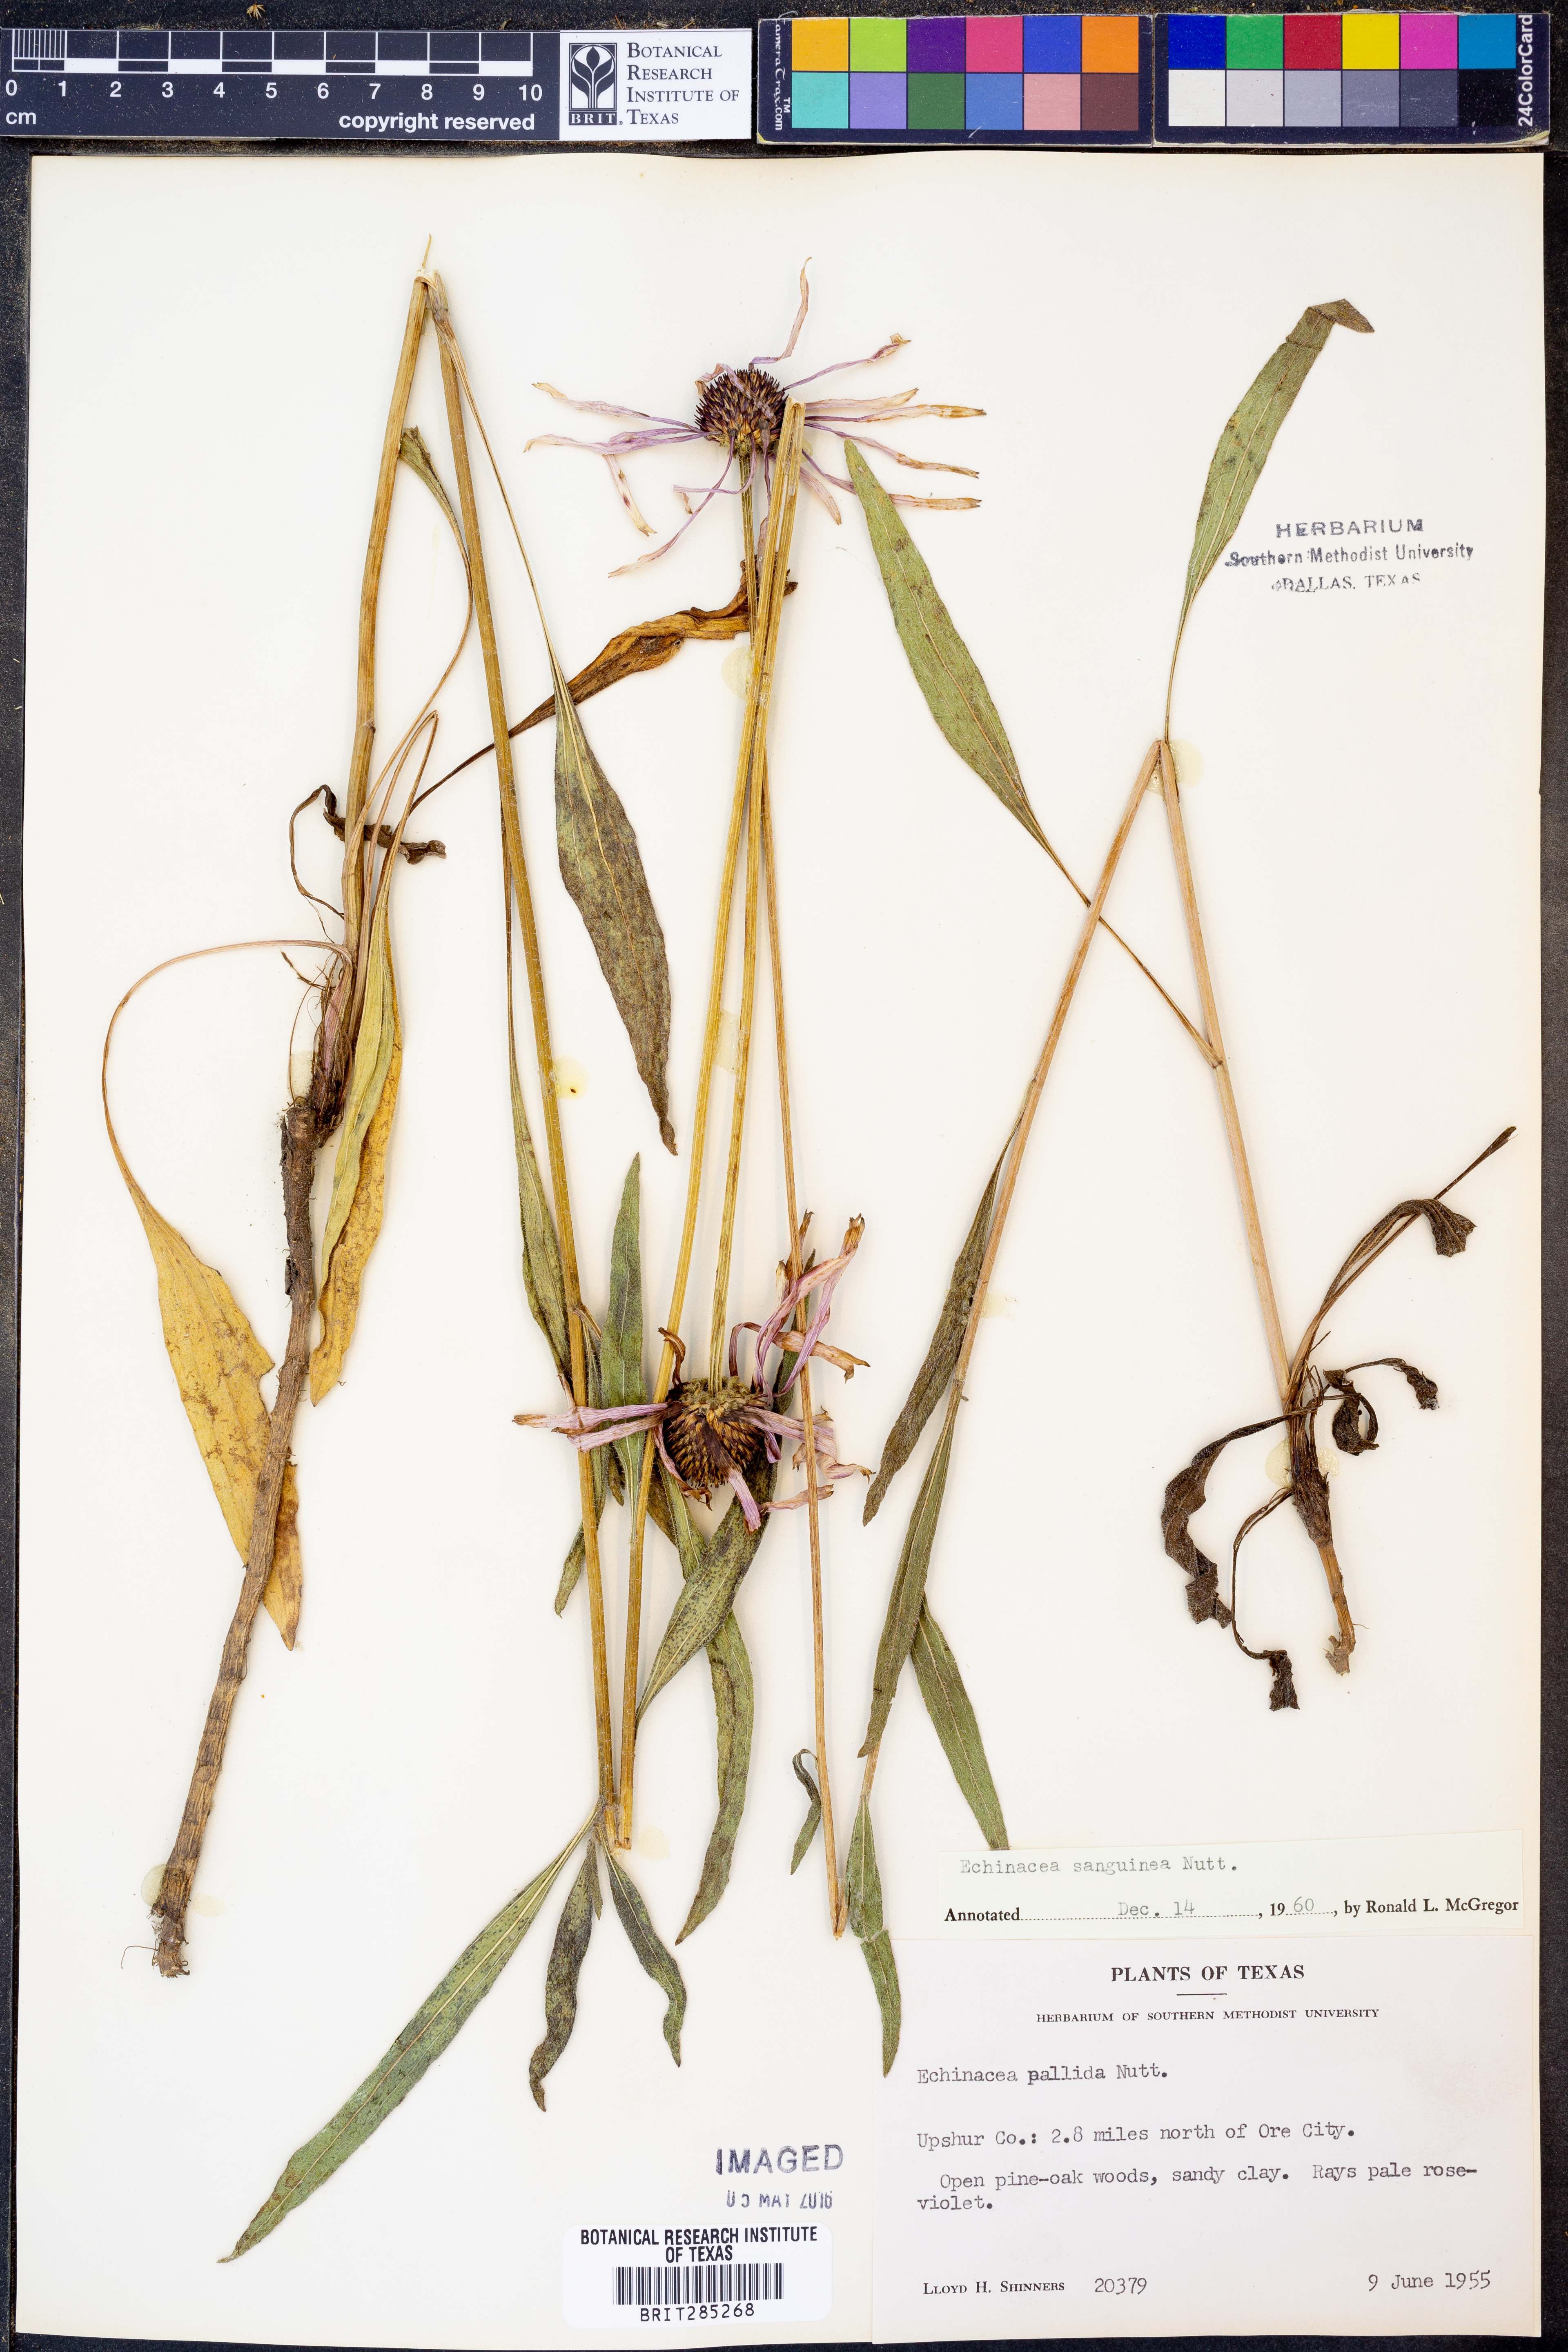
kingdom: Plantae
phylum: Tracheophyta
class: Magnoliopsida
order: Asterales
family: Asteraceae
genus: Echinacea
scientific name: Echinacea sanguinea
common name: Sanguine purple-coneflower
